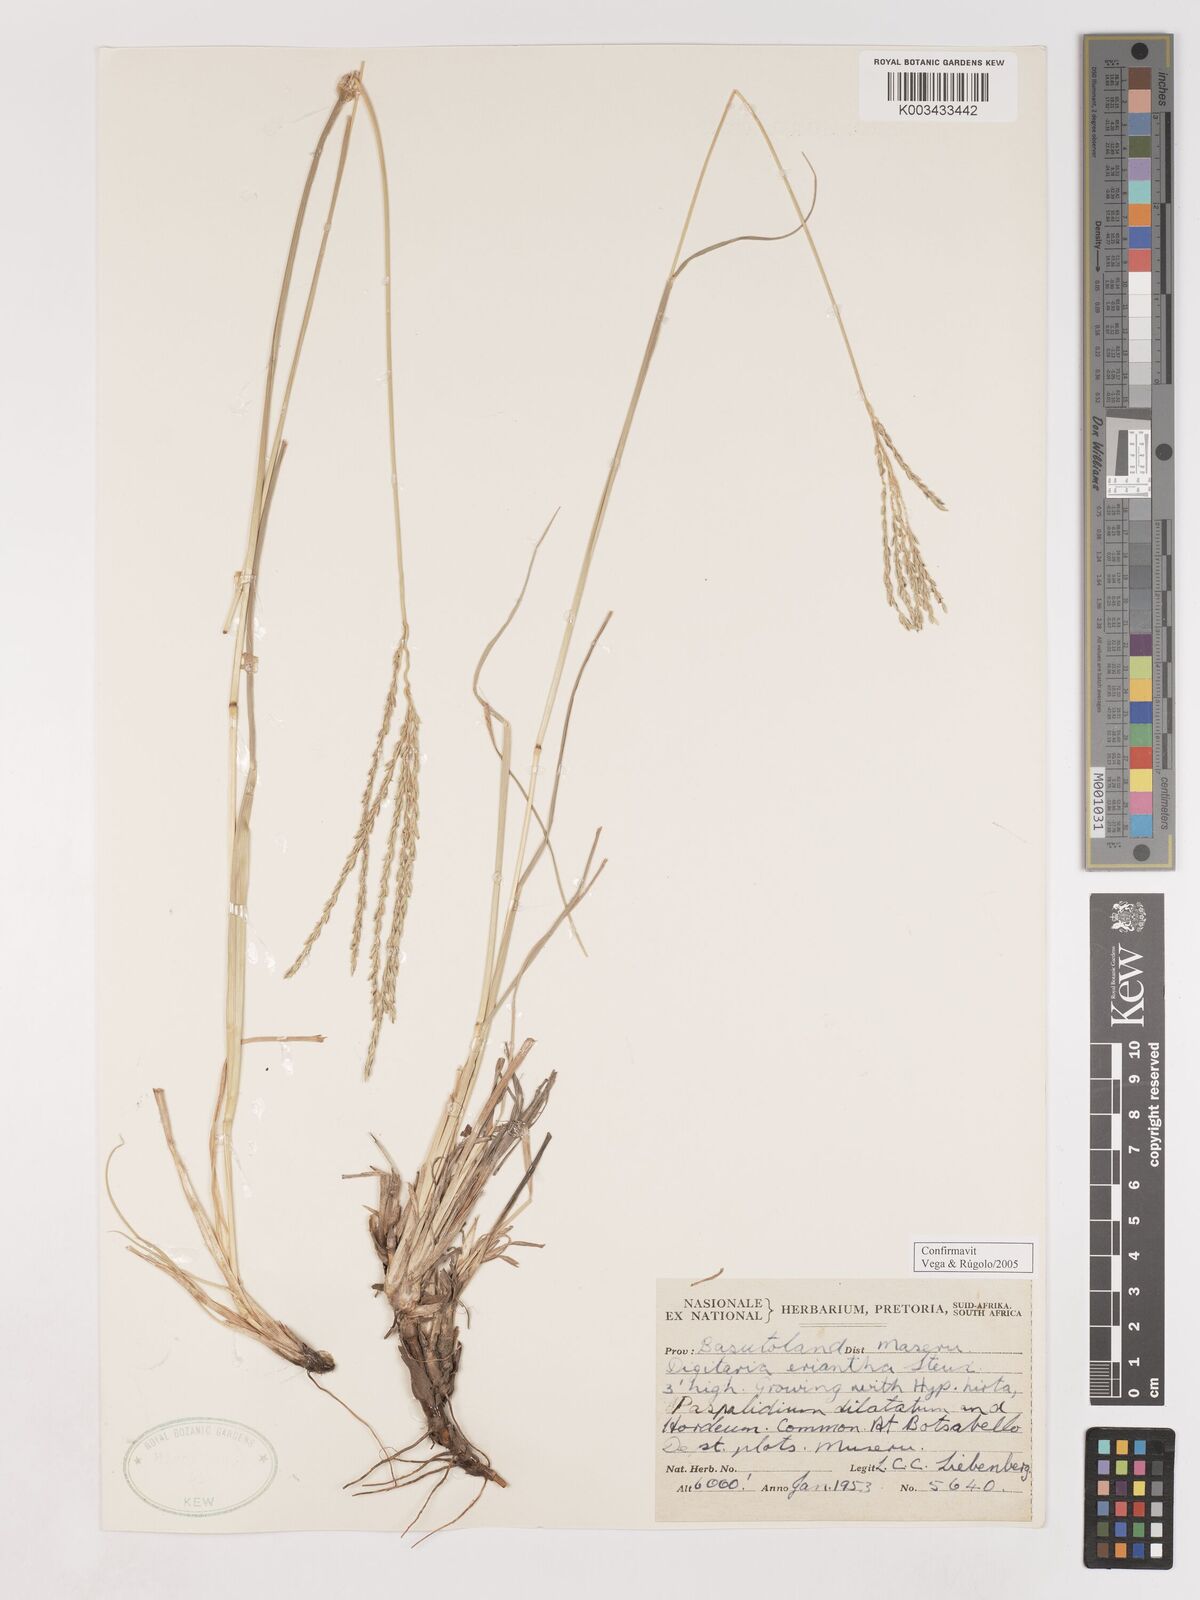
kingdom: Plantae
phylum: Tracheophyta
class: Liliopsida
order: Poales
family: Poaceae
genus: Digitaria
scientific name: Digitaria eriantha
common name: Digitgrass
